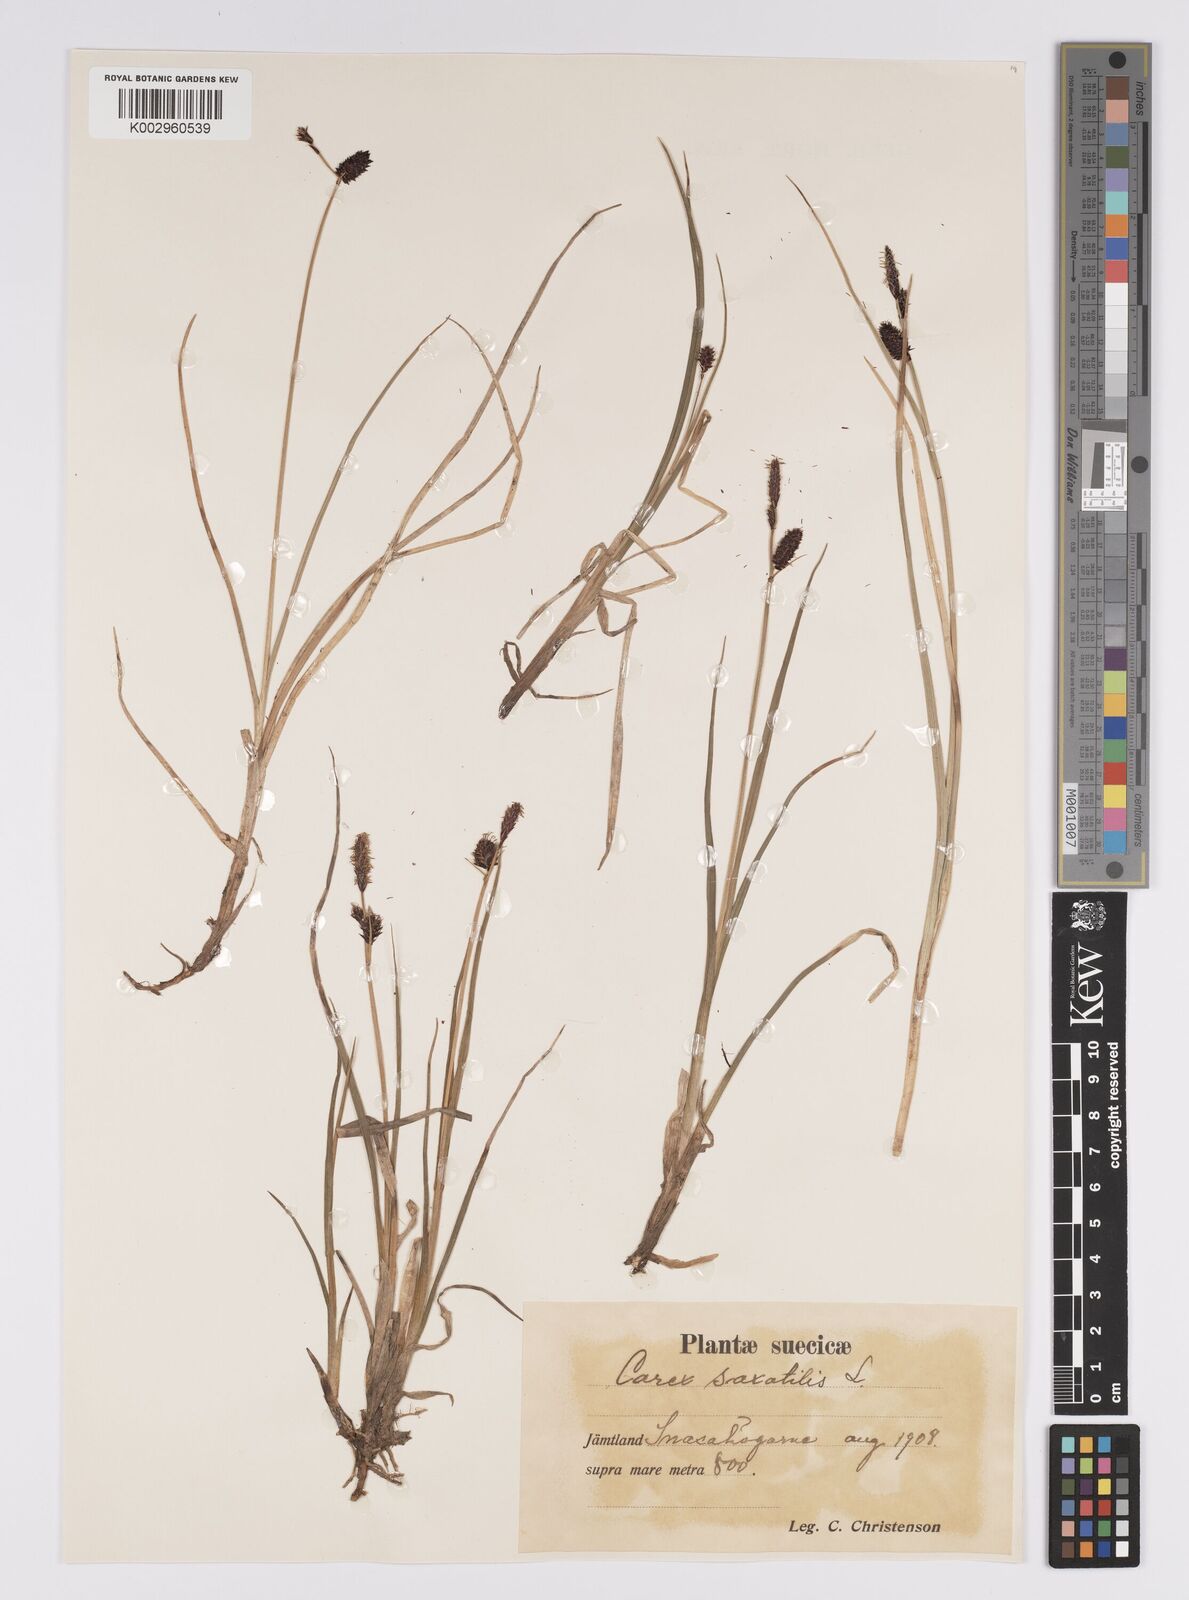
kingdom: Plantae
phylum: Tracheophyta
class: Liliopsida
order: Poales
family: Cyperaceae
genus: Carex
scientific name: Carex saxatilis
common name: Russet sedge
